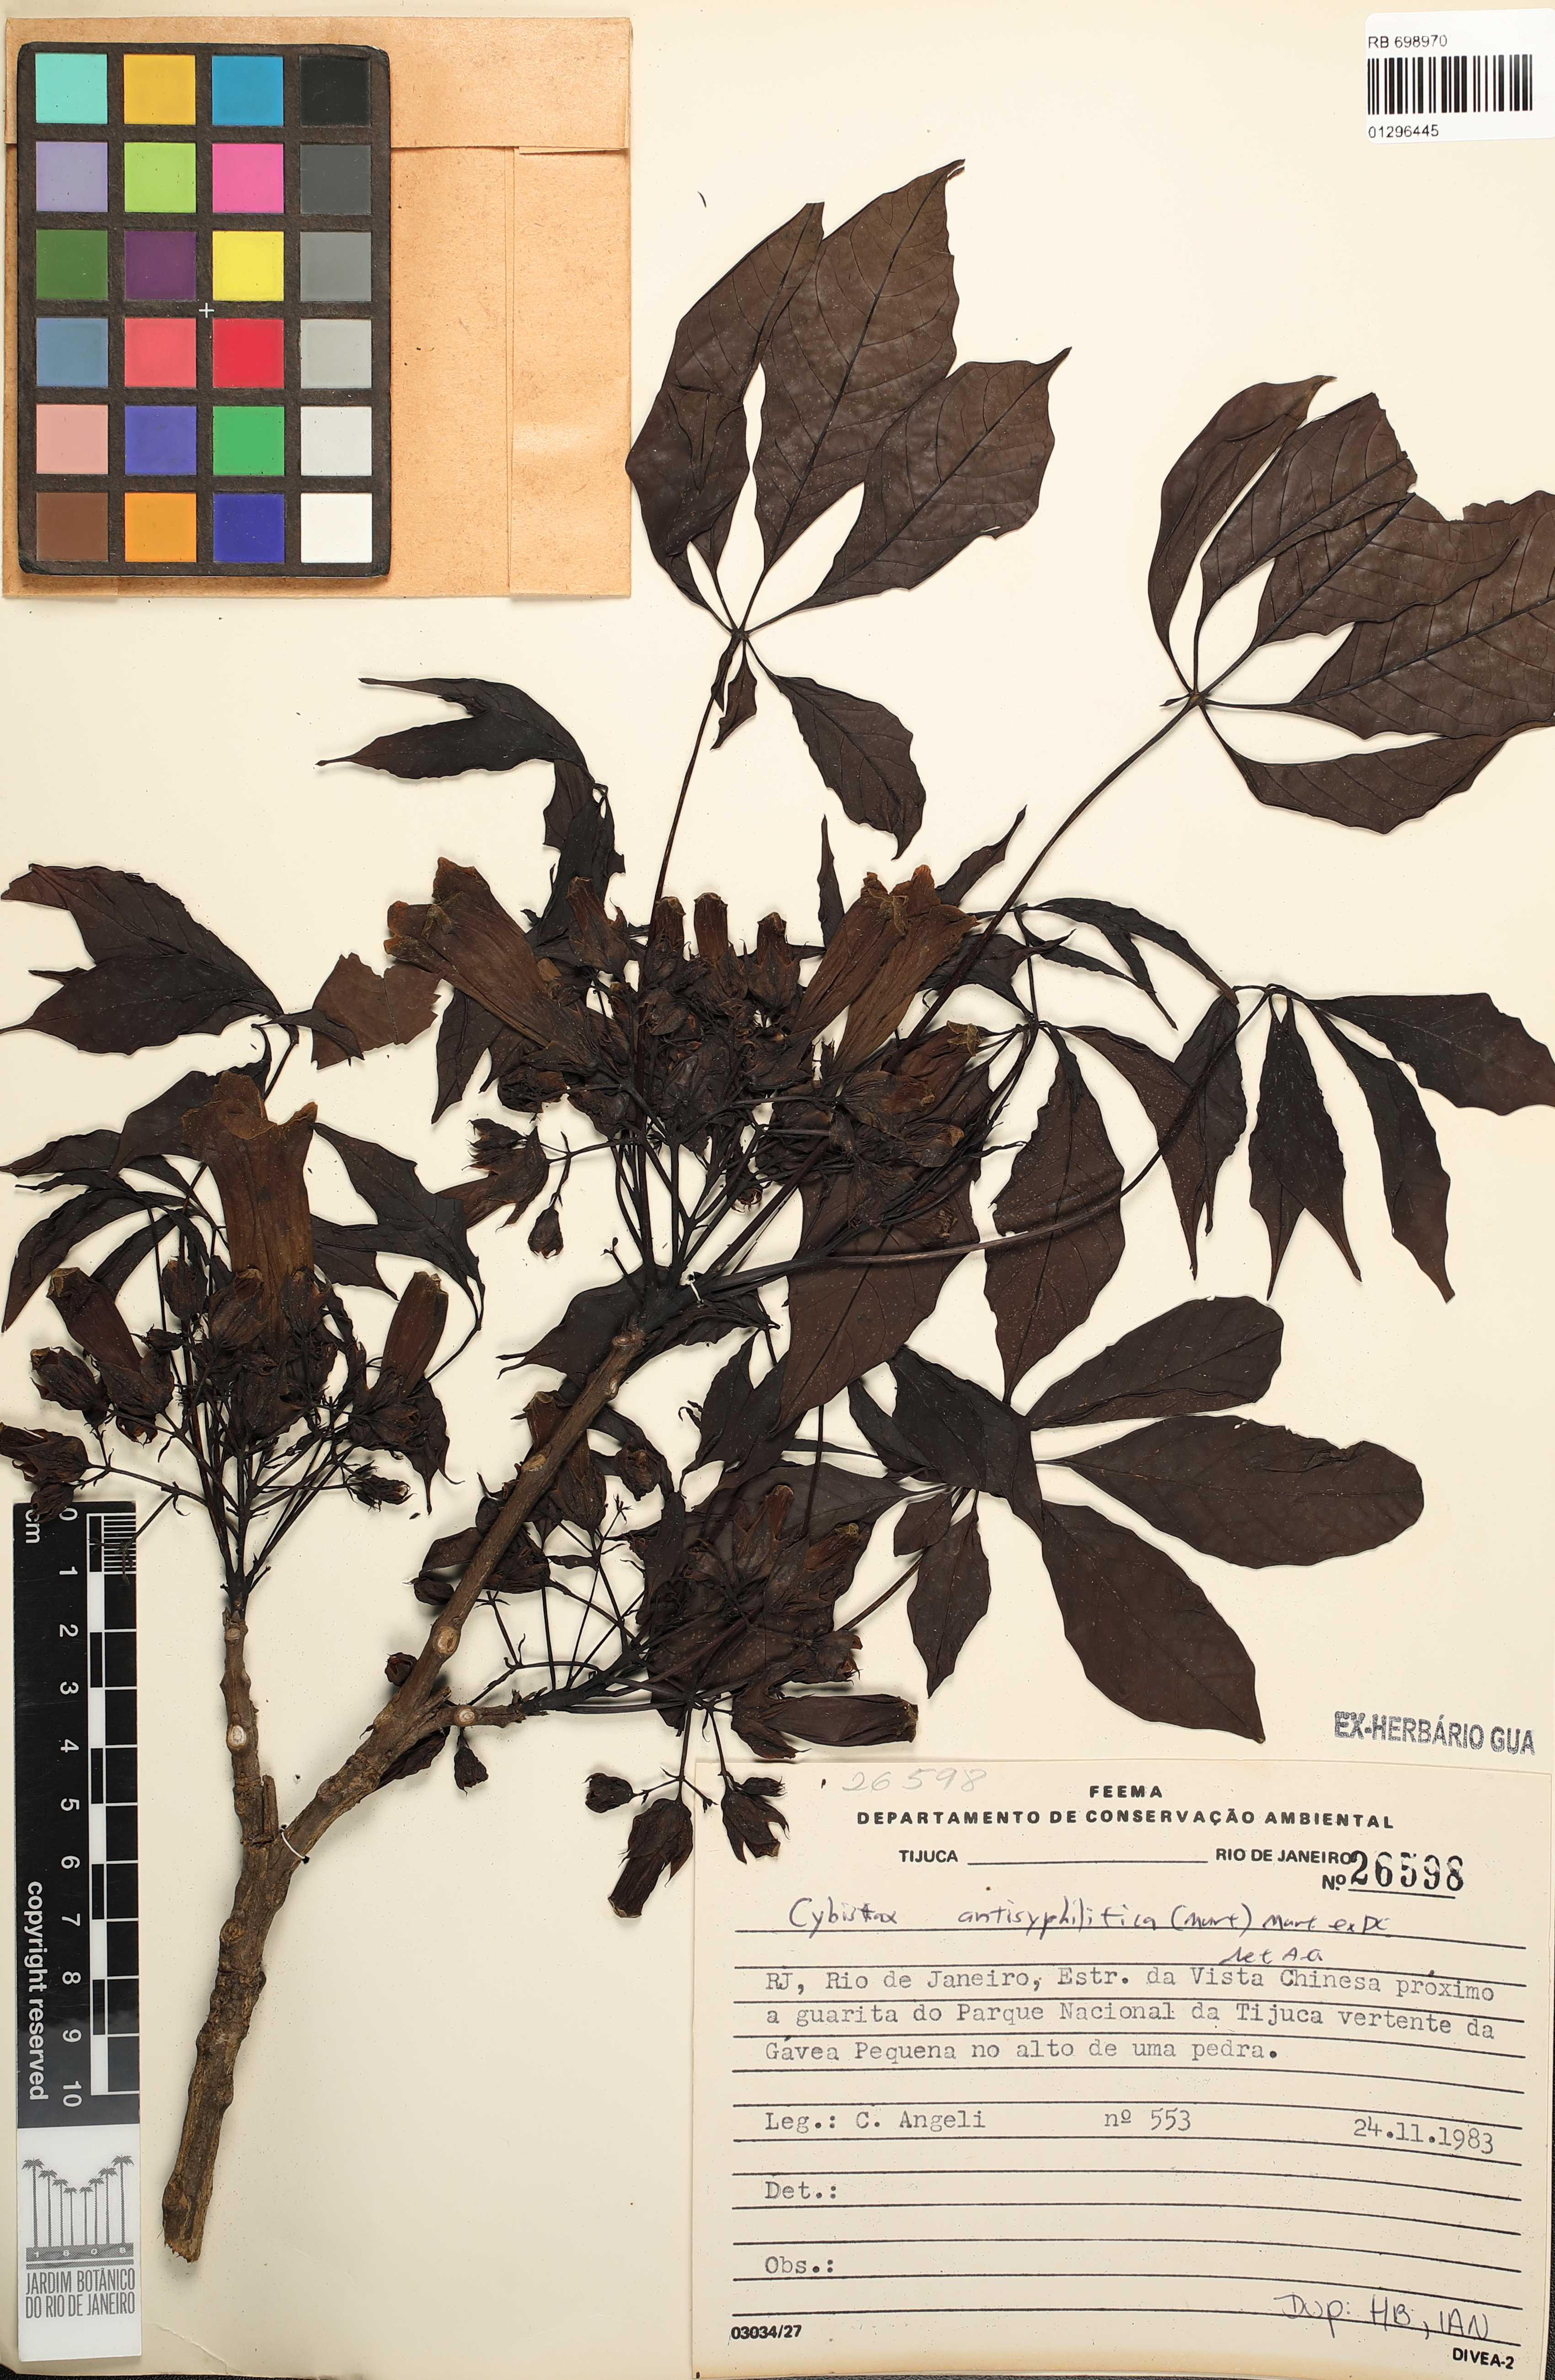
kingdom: Plantae
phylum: Tracheophyta
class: Magnoliopsida
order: Lamiales
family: Bignoniaceae
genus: Cybistax
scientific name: Cybistax antisyphilitica
